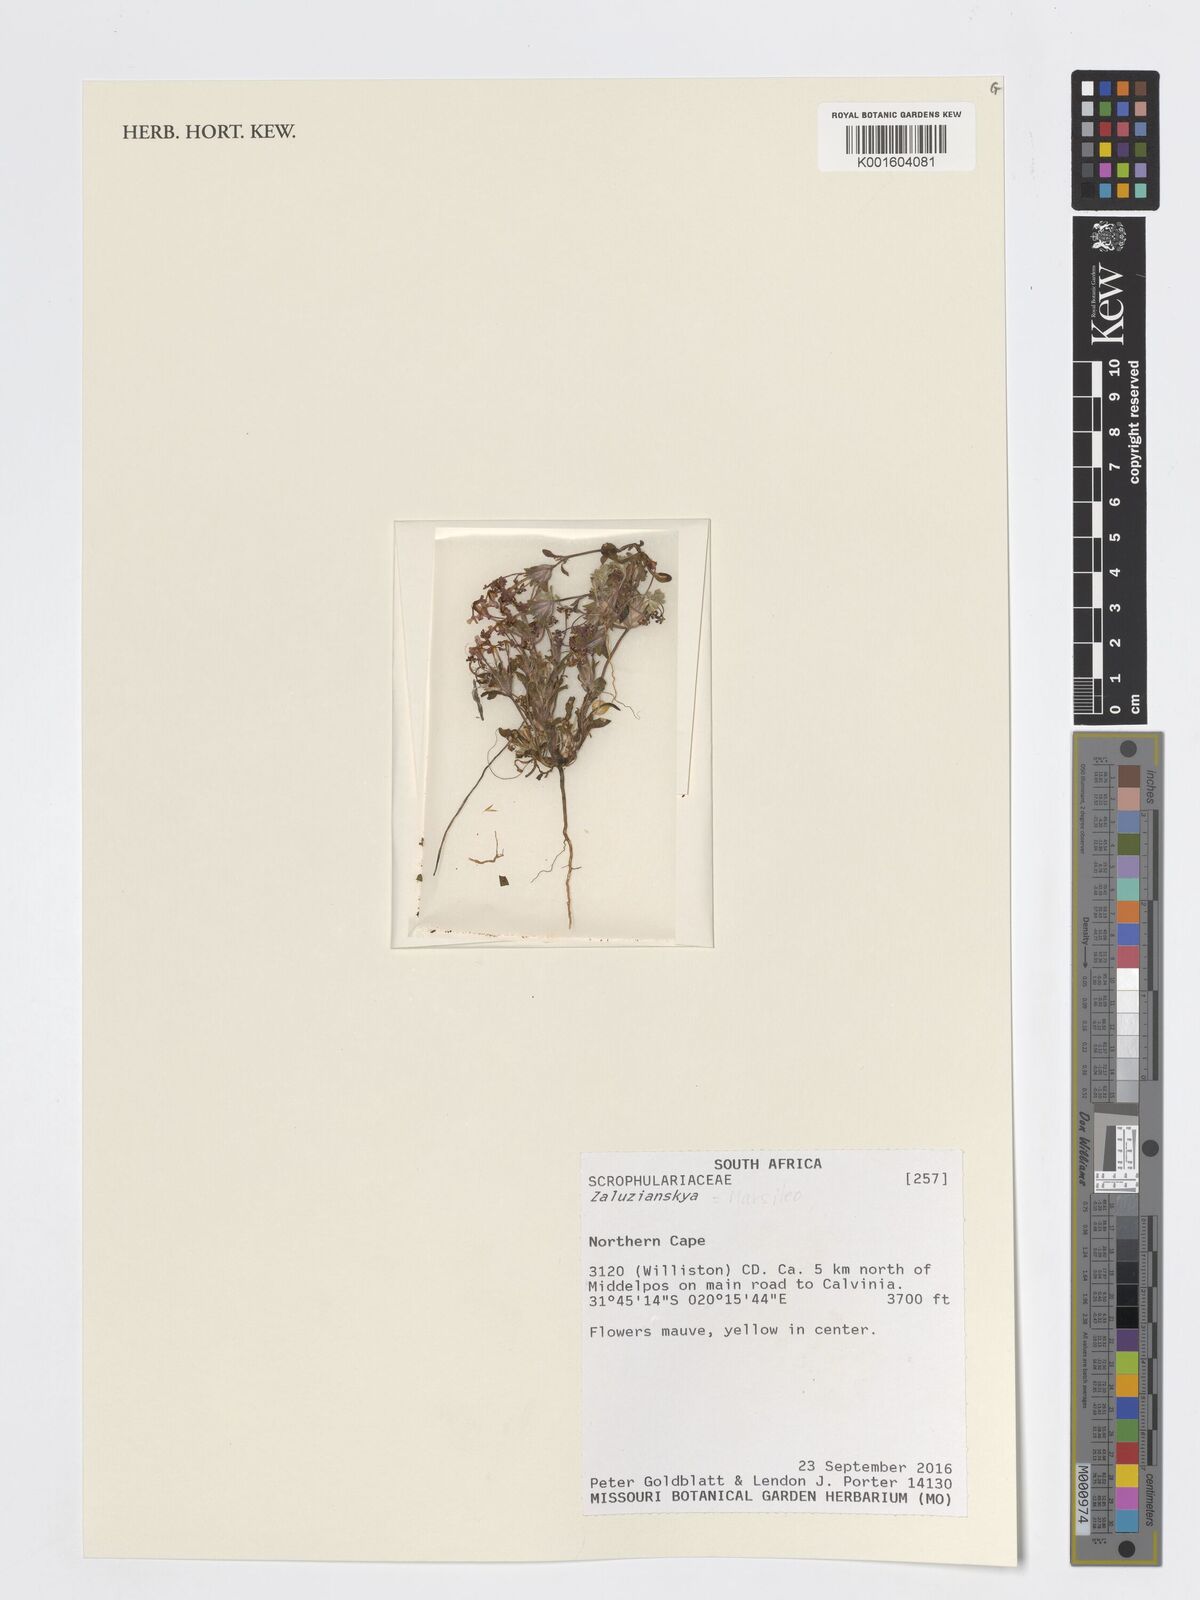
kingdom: Plantae
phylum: Tracheophyta
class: Magnoliopsida
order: Lamiales
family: Scrophulariaceae
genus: Zaluzianskya
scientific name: Zaluzianskya
